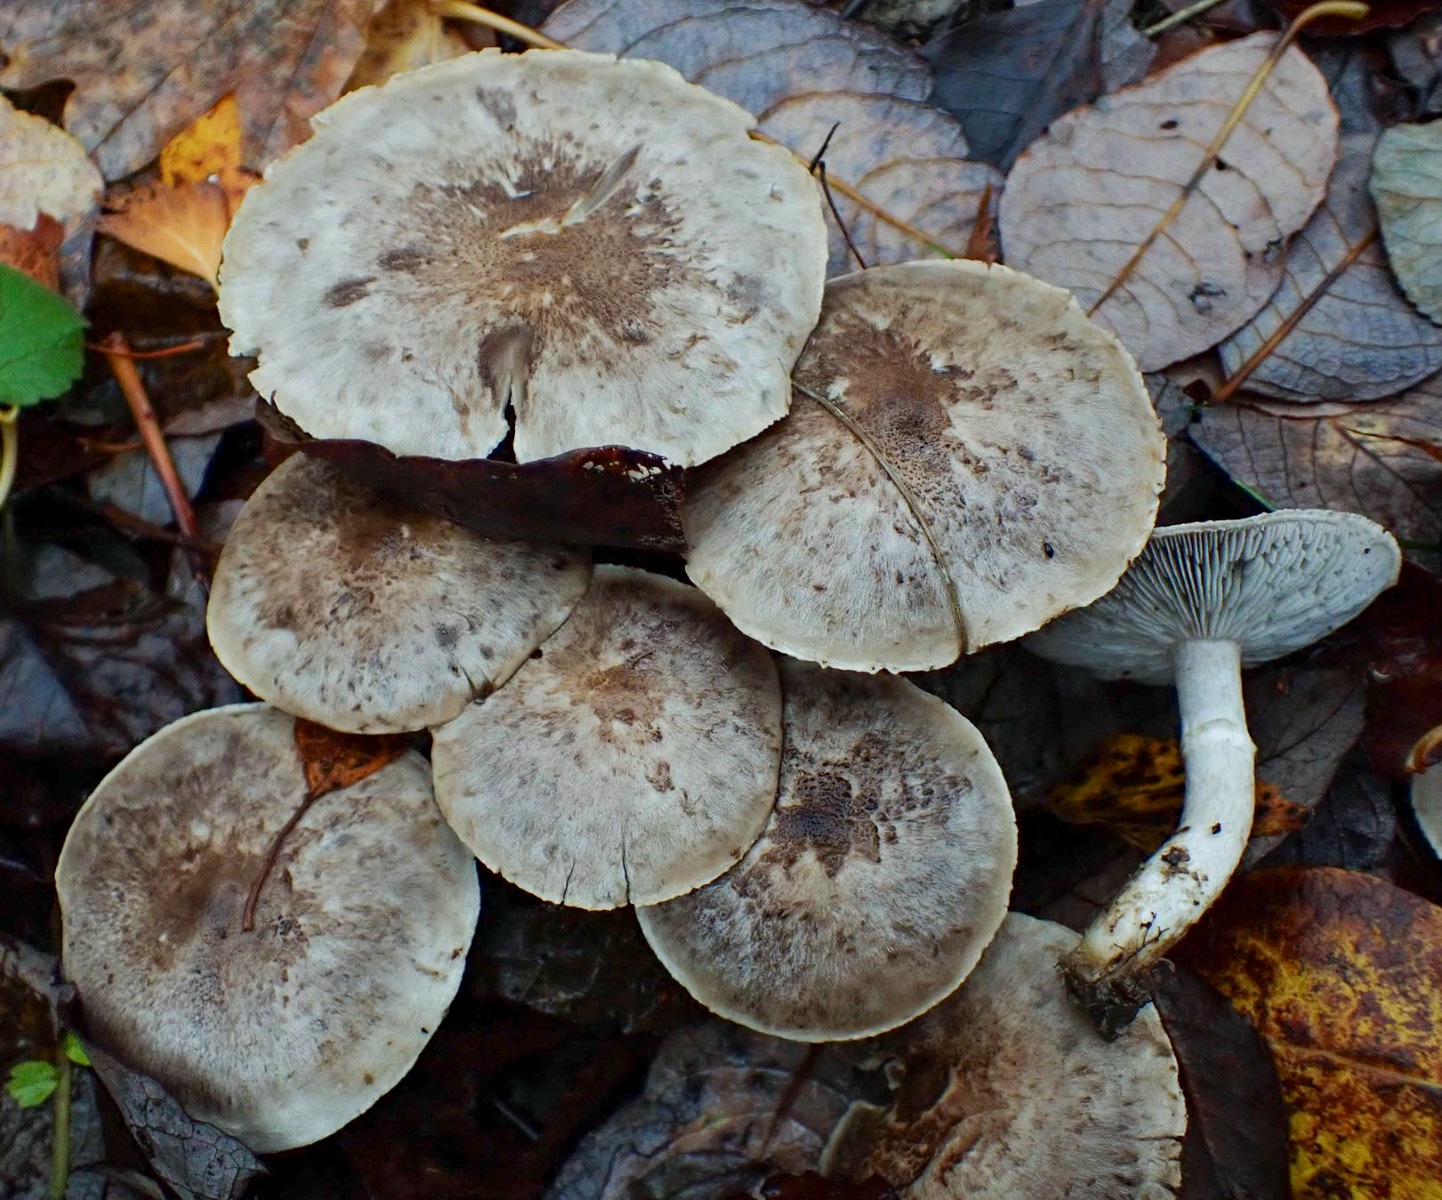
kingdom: Fungi
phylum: Basidiomycota
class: Agaricomycetes
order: Agaricales
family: Tricholomataceae
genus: Tricholoma
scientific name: Tricholoma cingulatum
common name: ring-ridderhat
